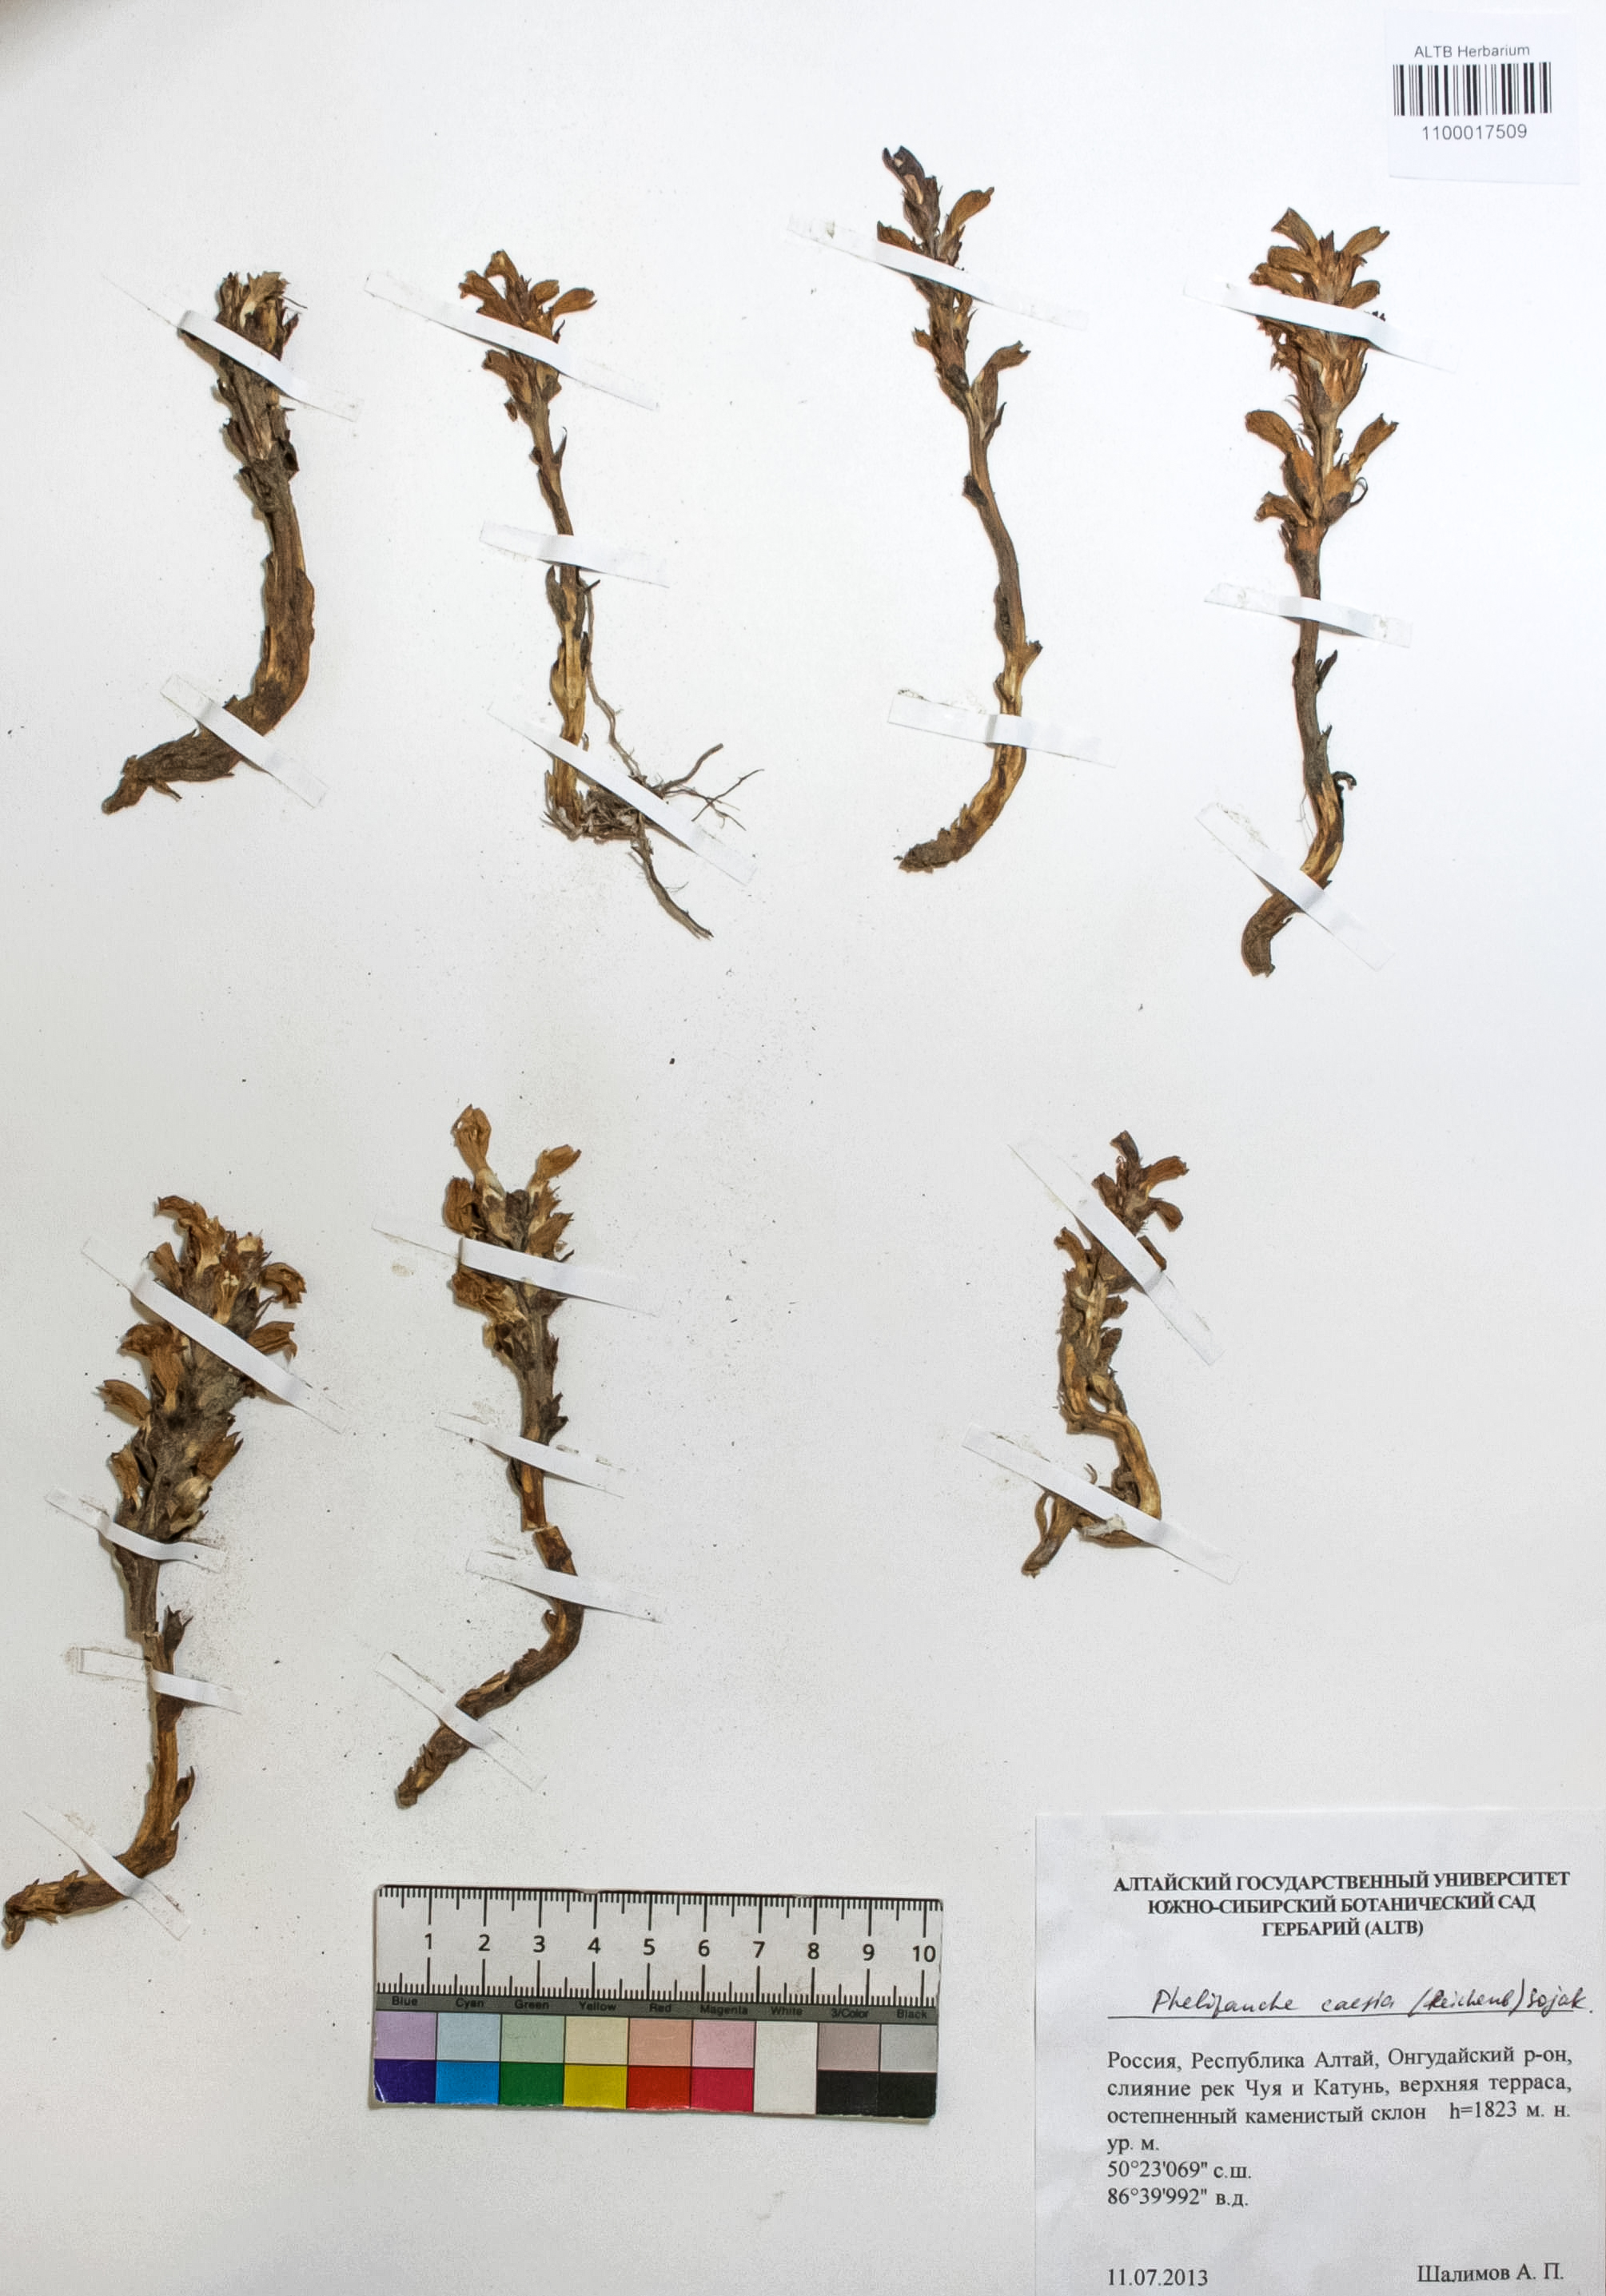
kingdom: Plantae
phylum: Tracheophyta
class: Magnoliopsida
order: Lamiales
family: Orobanchaceae
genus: Phelipanche
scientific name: Phelipanche caesia
